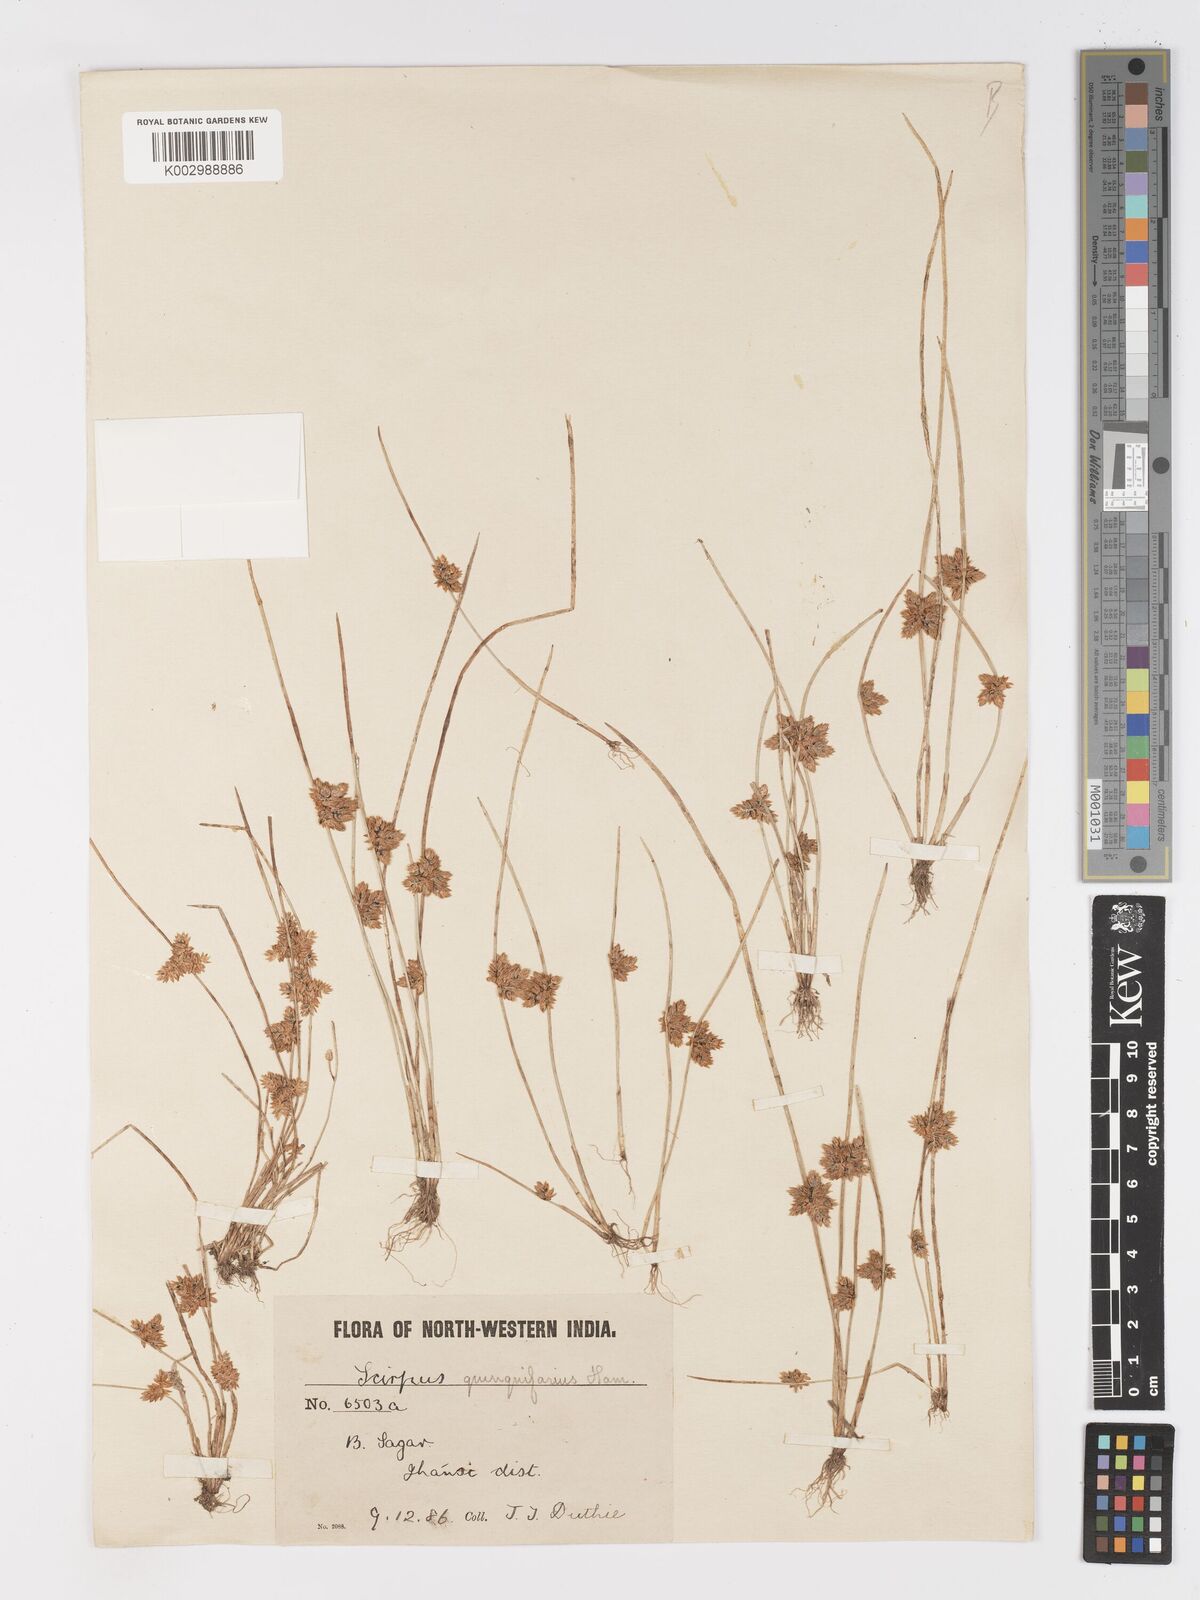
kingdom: Plantae
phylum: Tracheophyta
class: Liliopsida
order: Poales
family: Cyperaceae
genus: Schoenoplectiella
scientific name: Schoenoplectiella roylei
